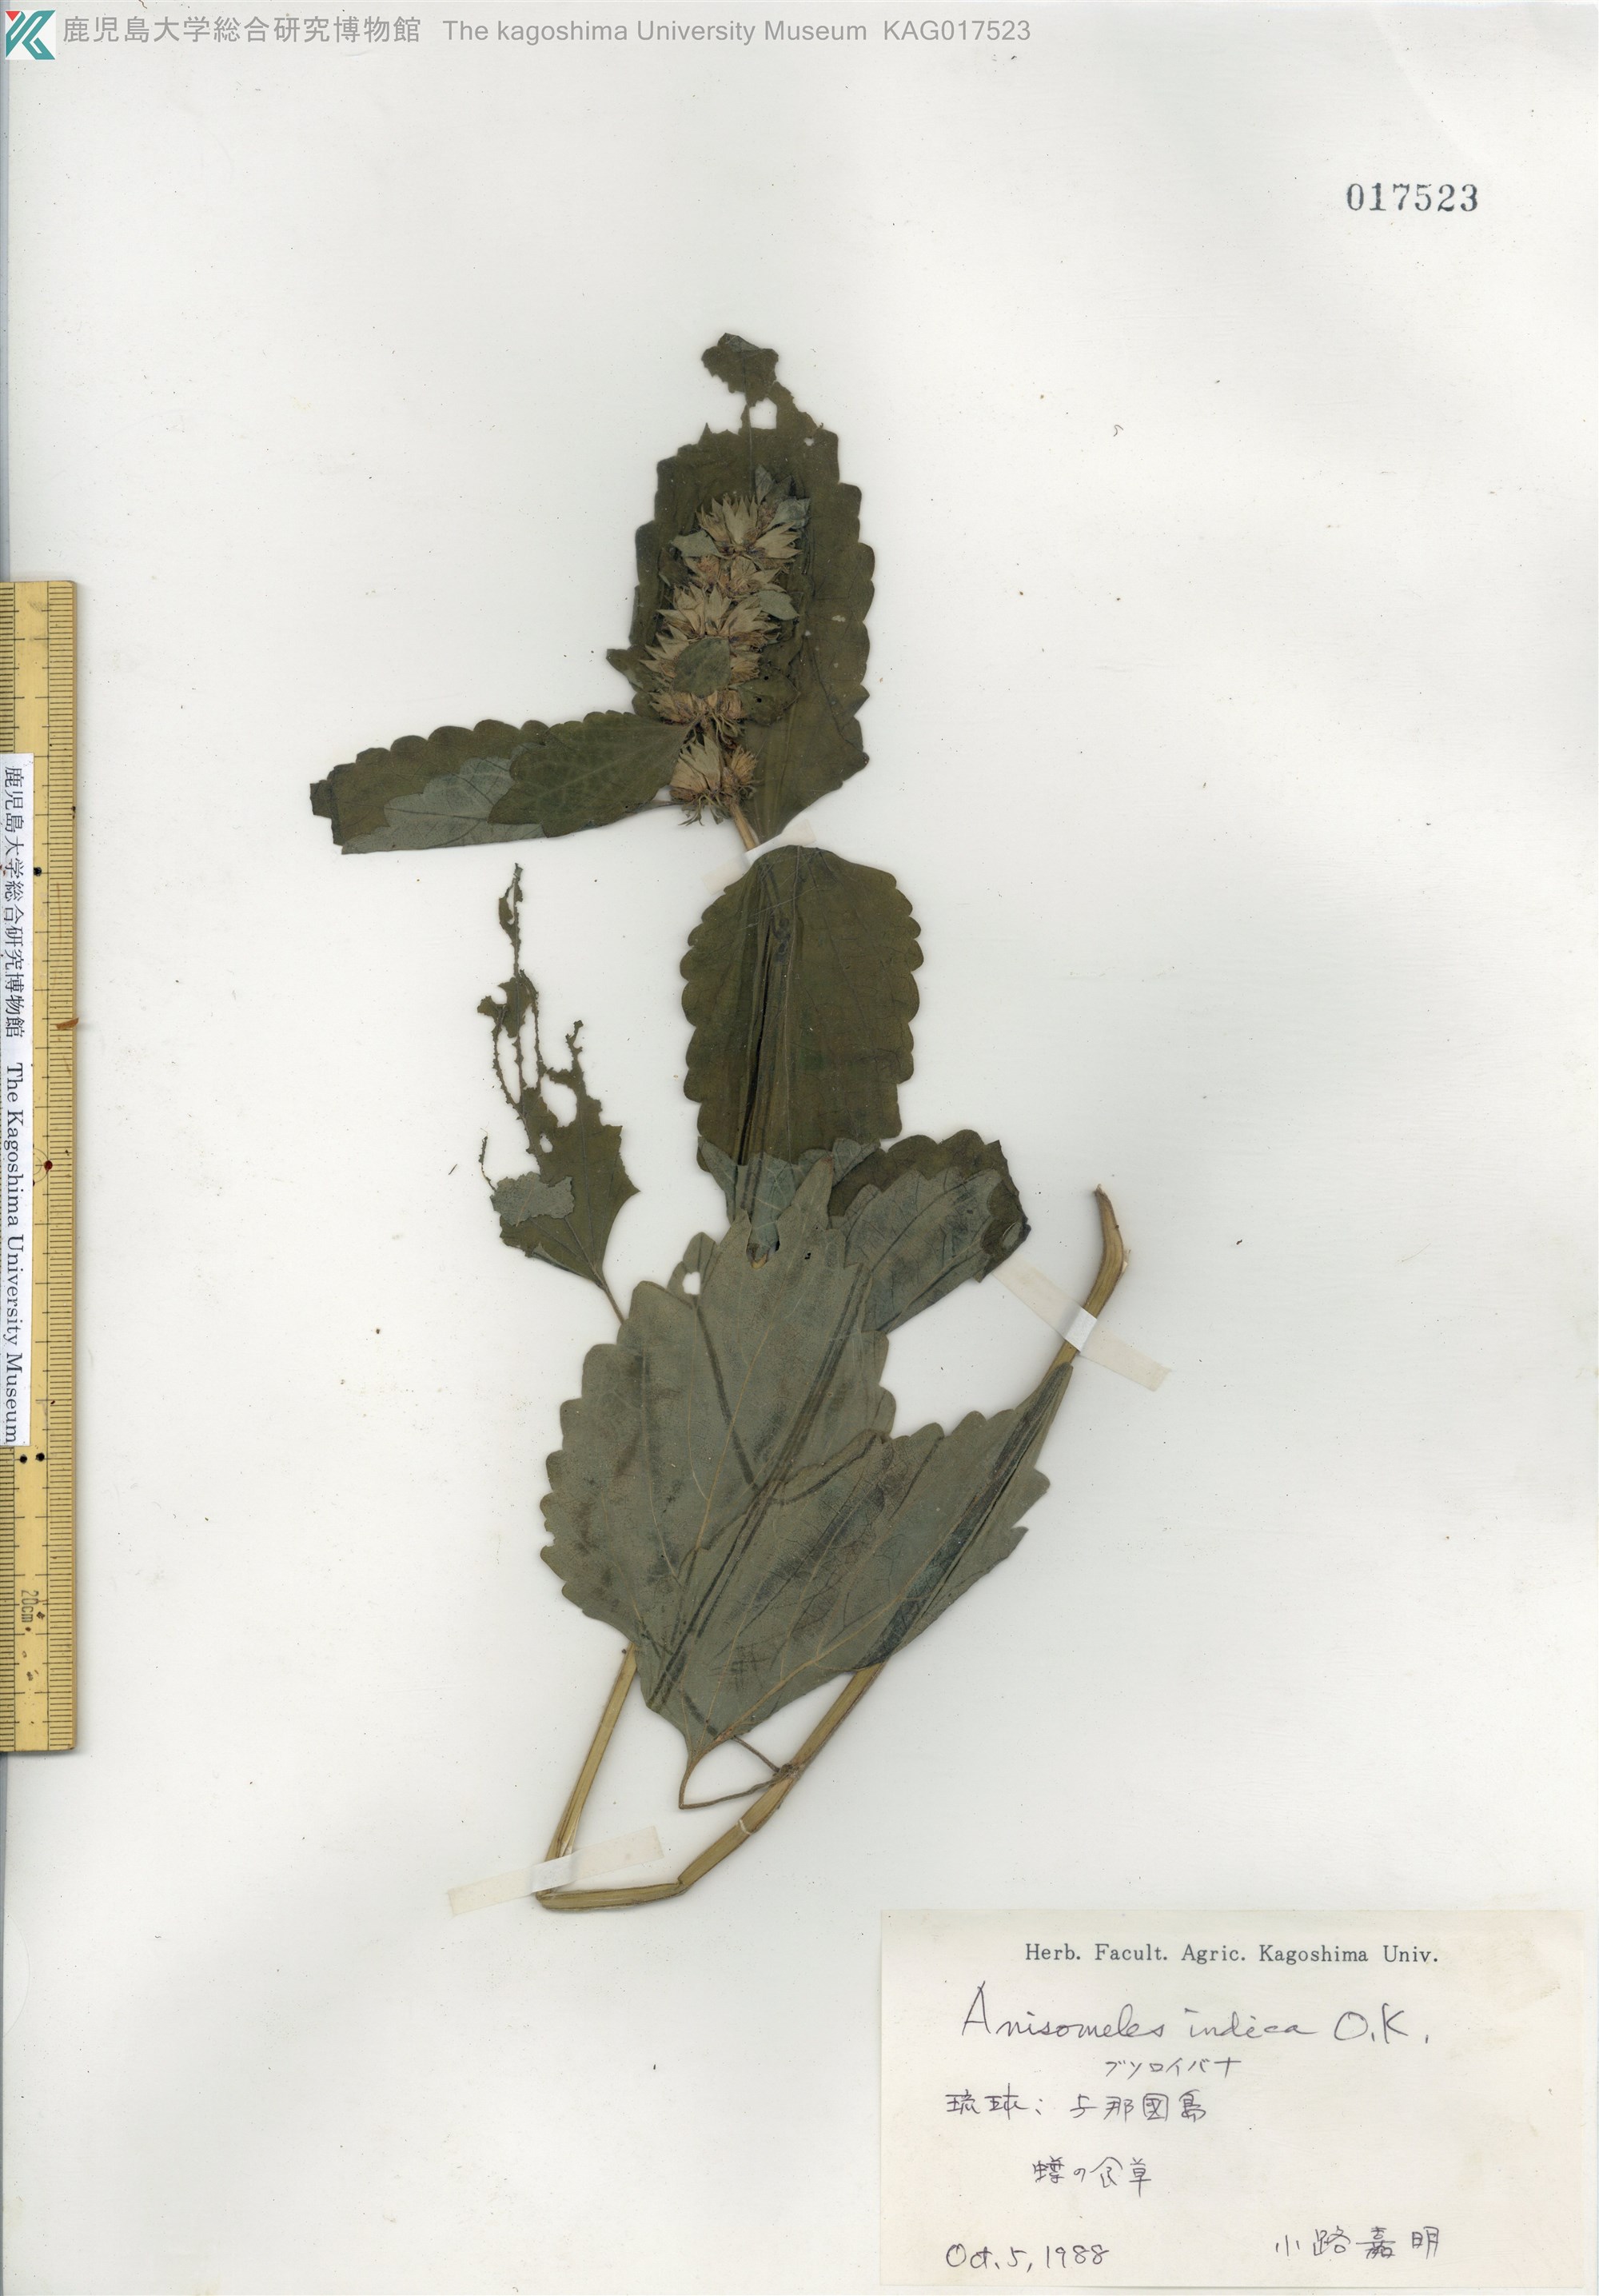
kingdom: Plantae
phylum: Tracheophyta
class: Magnoliopsida
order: Lamiales
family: Lamiaceae
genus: Anisomeles
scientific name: Anisomeles indica
